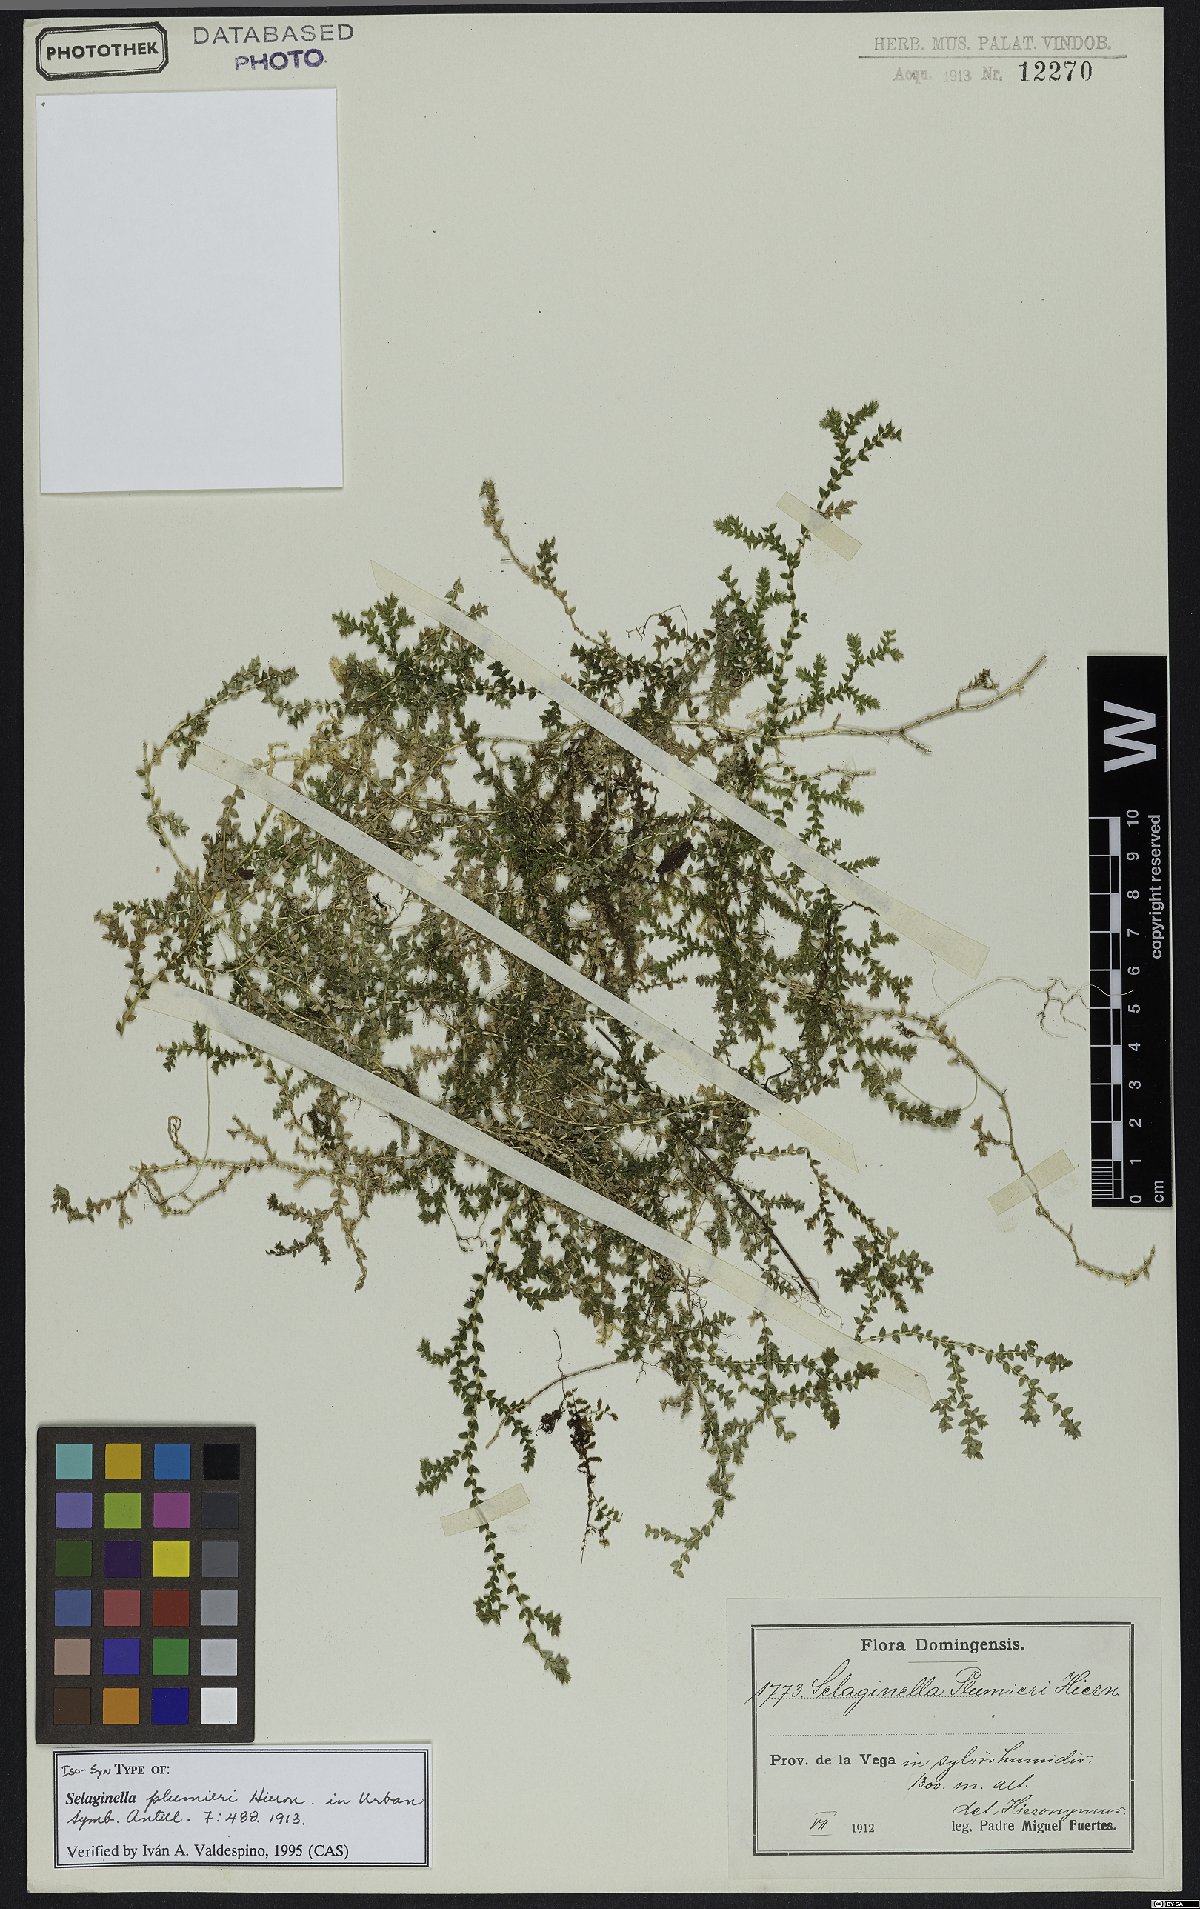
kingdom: Plantae
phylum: Tracheophyta
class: Lycopodiopsida
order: Selaginellales
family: Selaginellaceae
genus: Selaginella
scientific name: Selaginella plumieri
